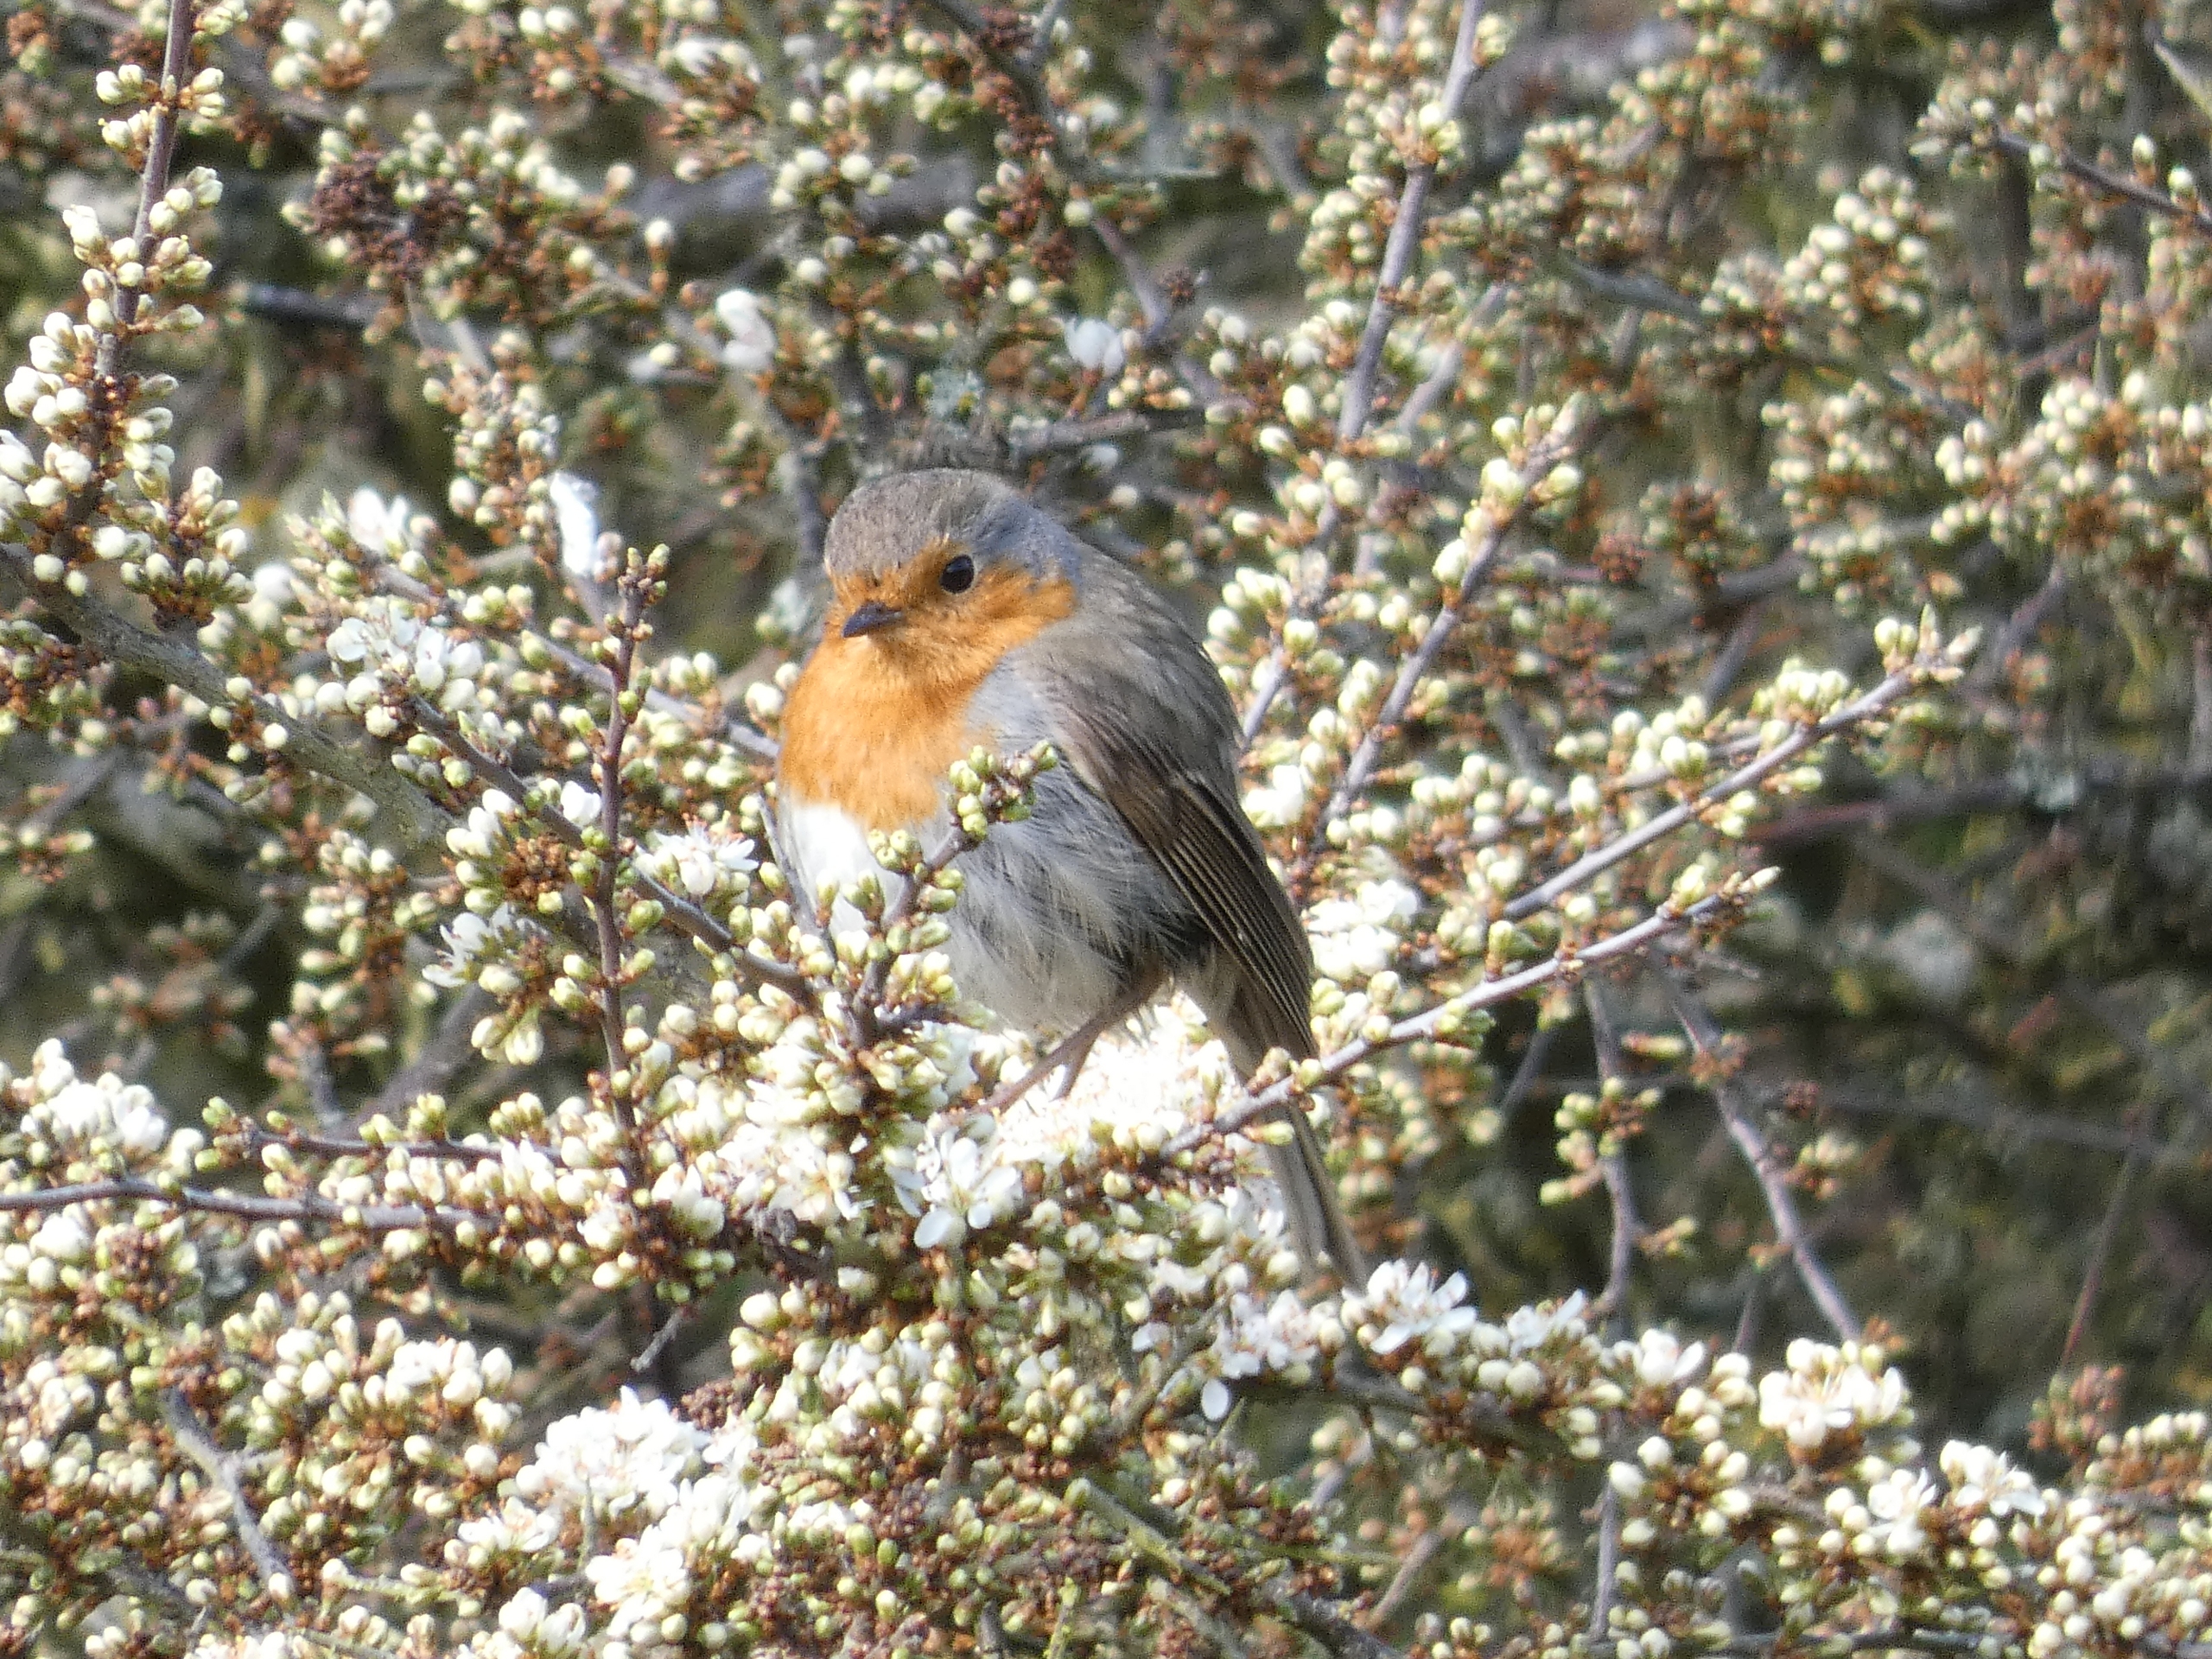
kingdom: Animalia
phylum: Chordata
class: Aves
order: Passeriformes
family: Muscicapidae
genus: Erithacus
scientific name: Erithacus rubecula
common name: Rødhals/rødkælk
